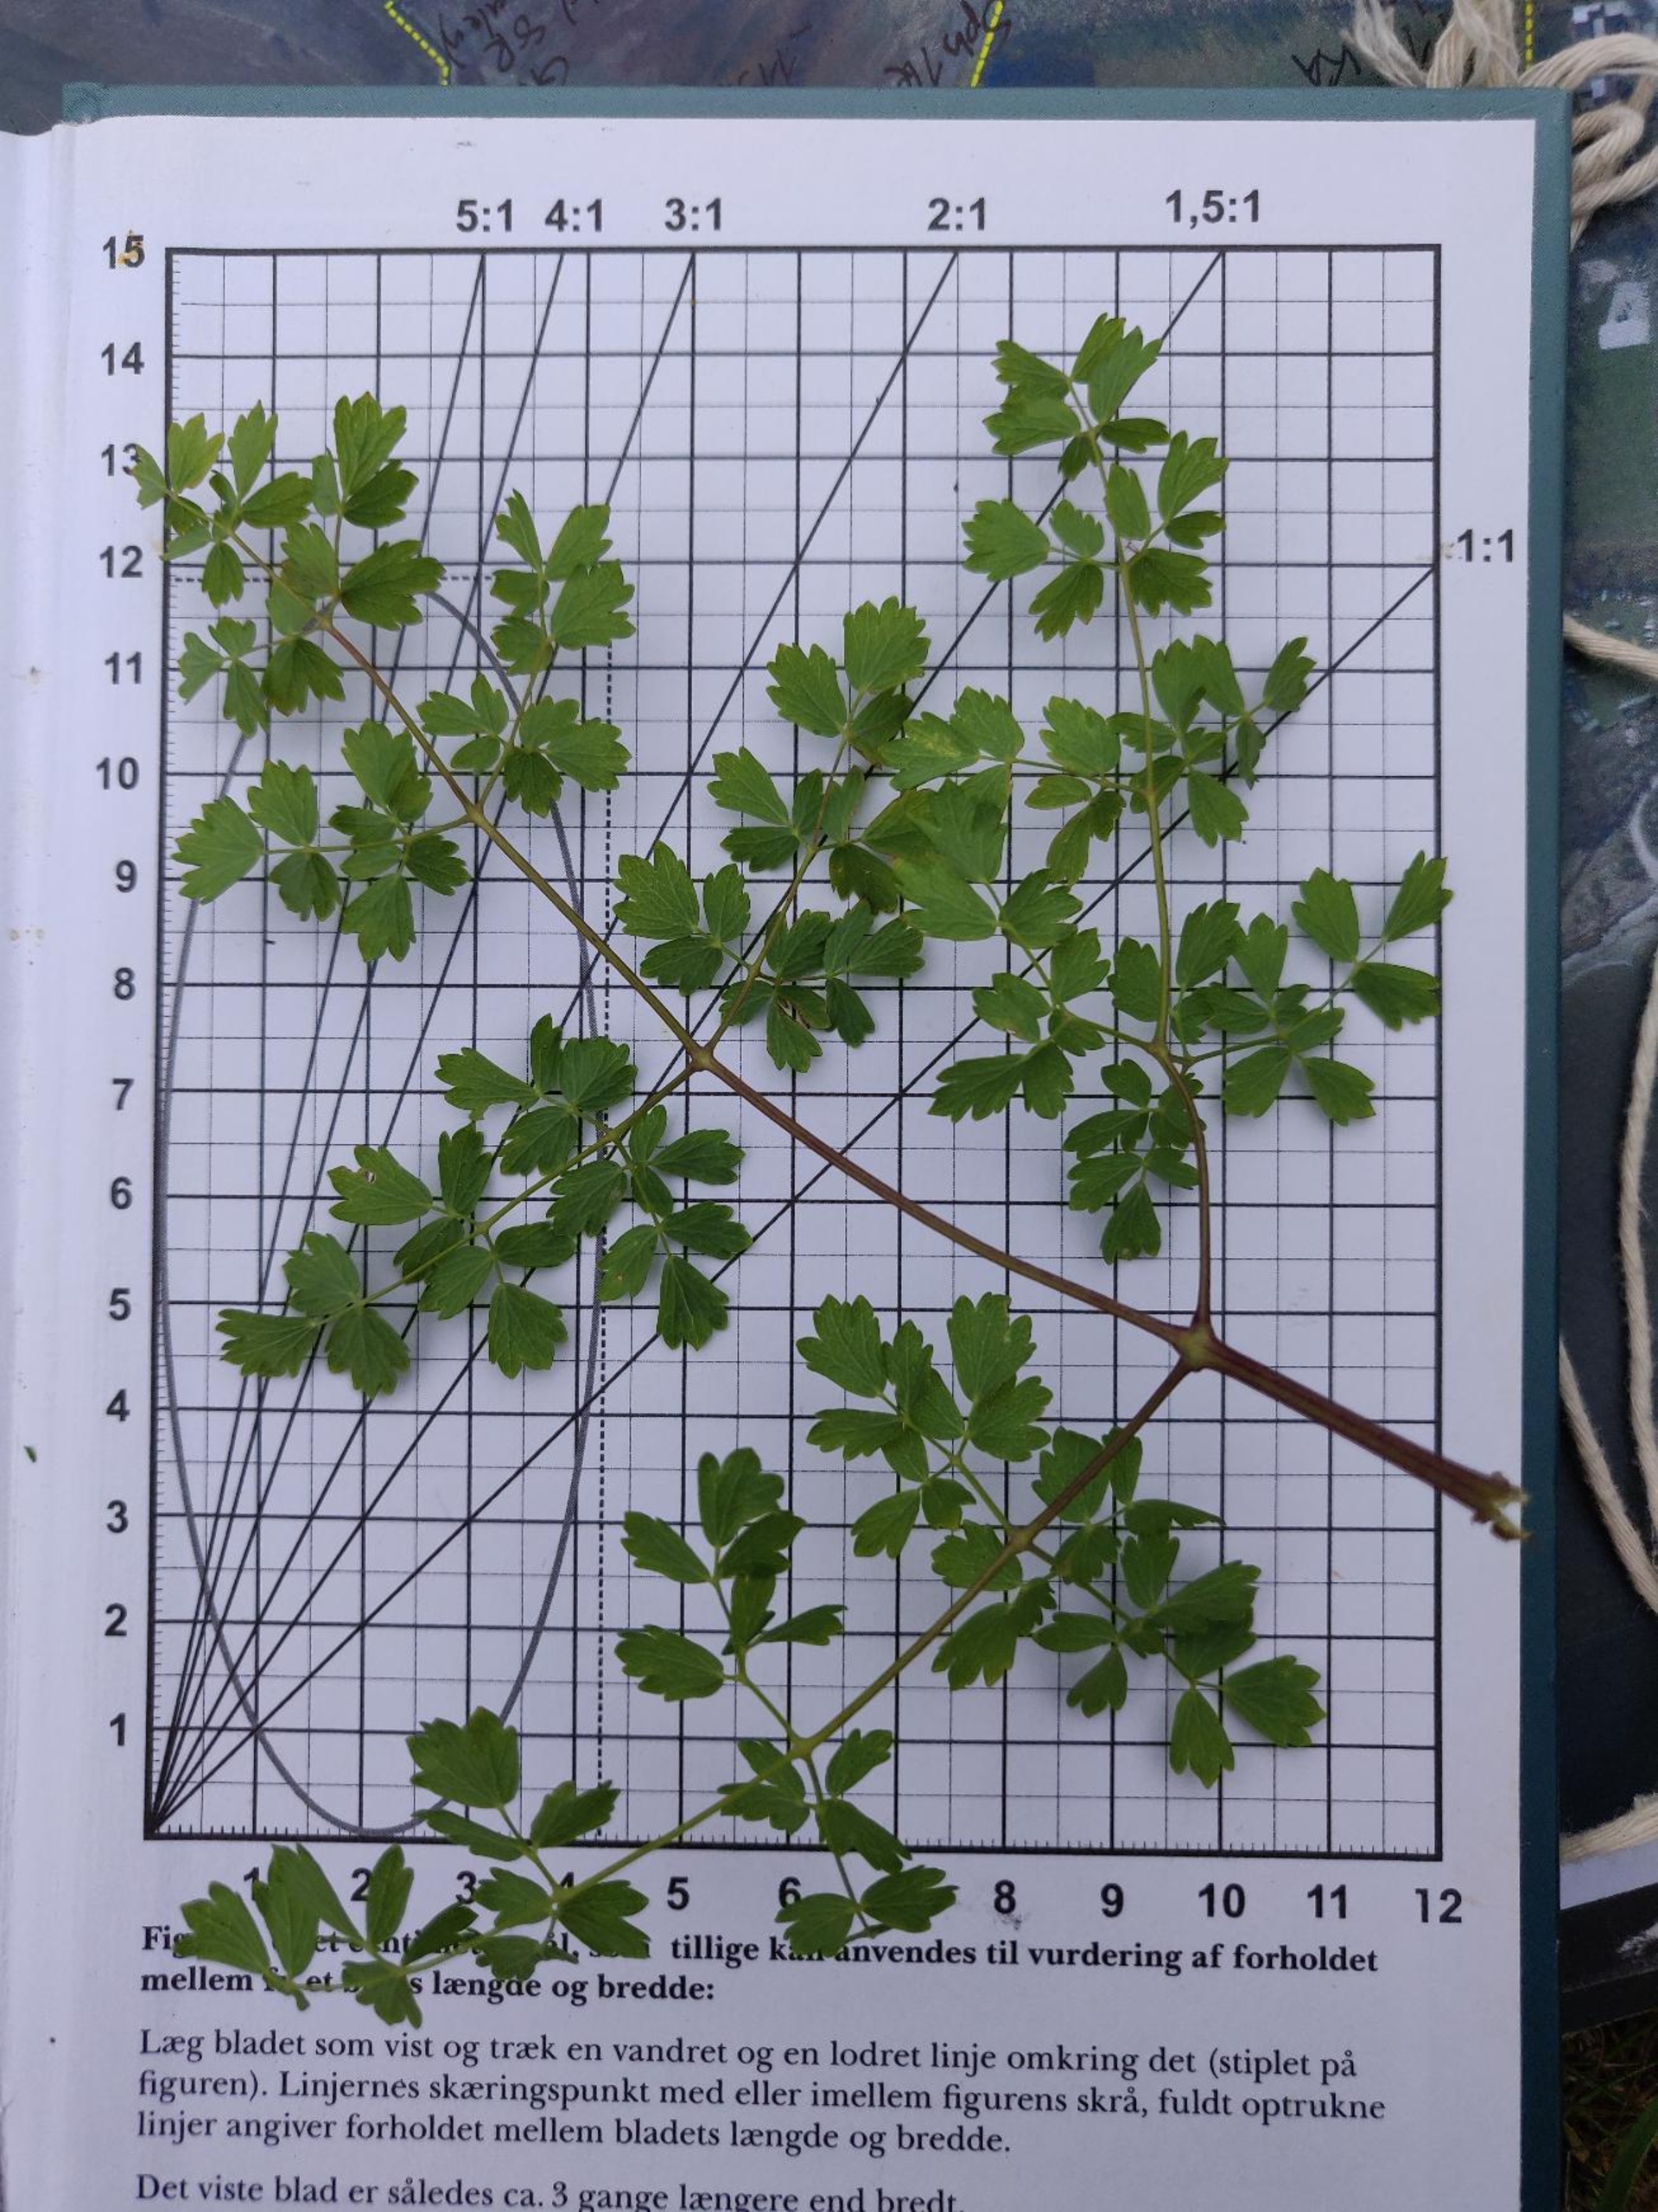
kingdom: Plantae
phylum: Tracheophyta
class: Magnoliopsida
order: Ranunculales
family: Ranunculaceae
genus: Thalictrum
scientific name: Thalictrum minus
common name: Bugtet frøstjerne
